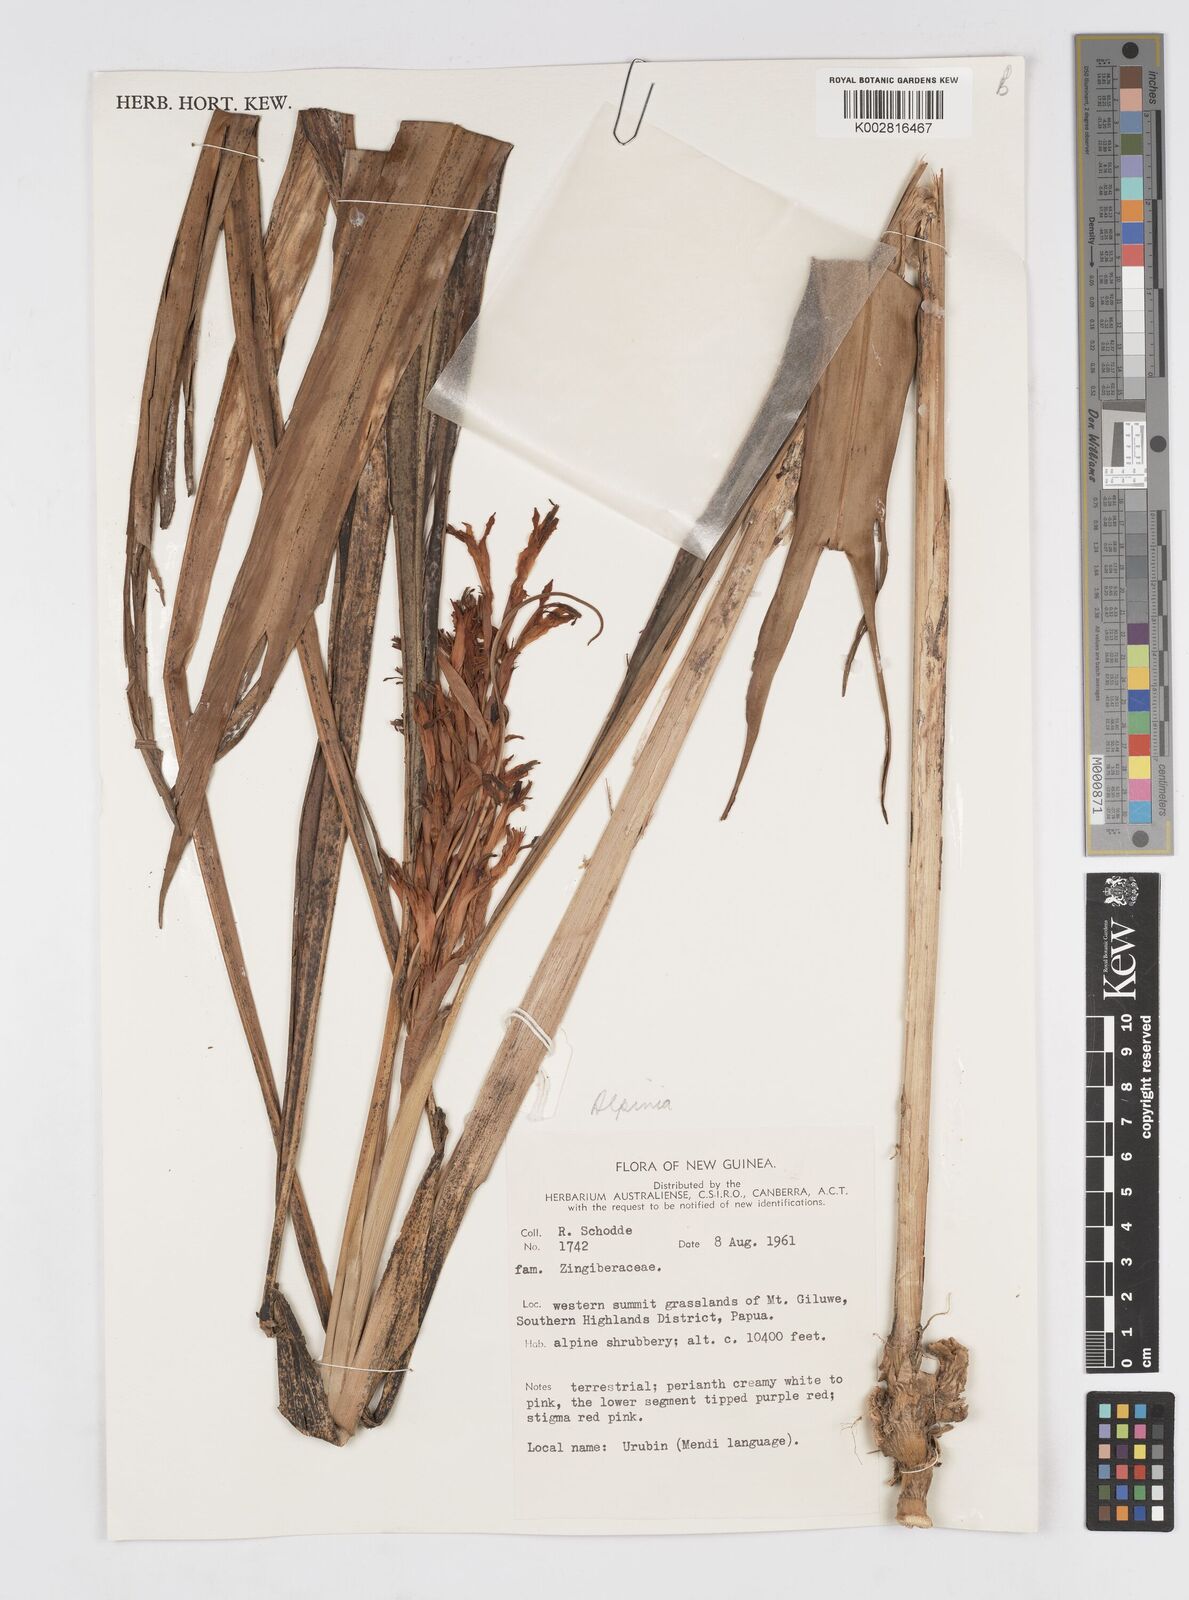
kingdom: Plantae
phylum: Tracheophyta
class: Liliopsida
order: Zingiberales
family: Zingiberaceae
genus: Alpinia
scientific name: Alpinia
